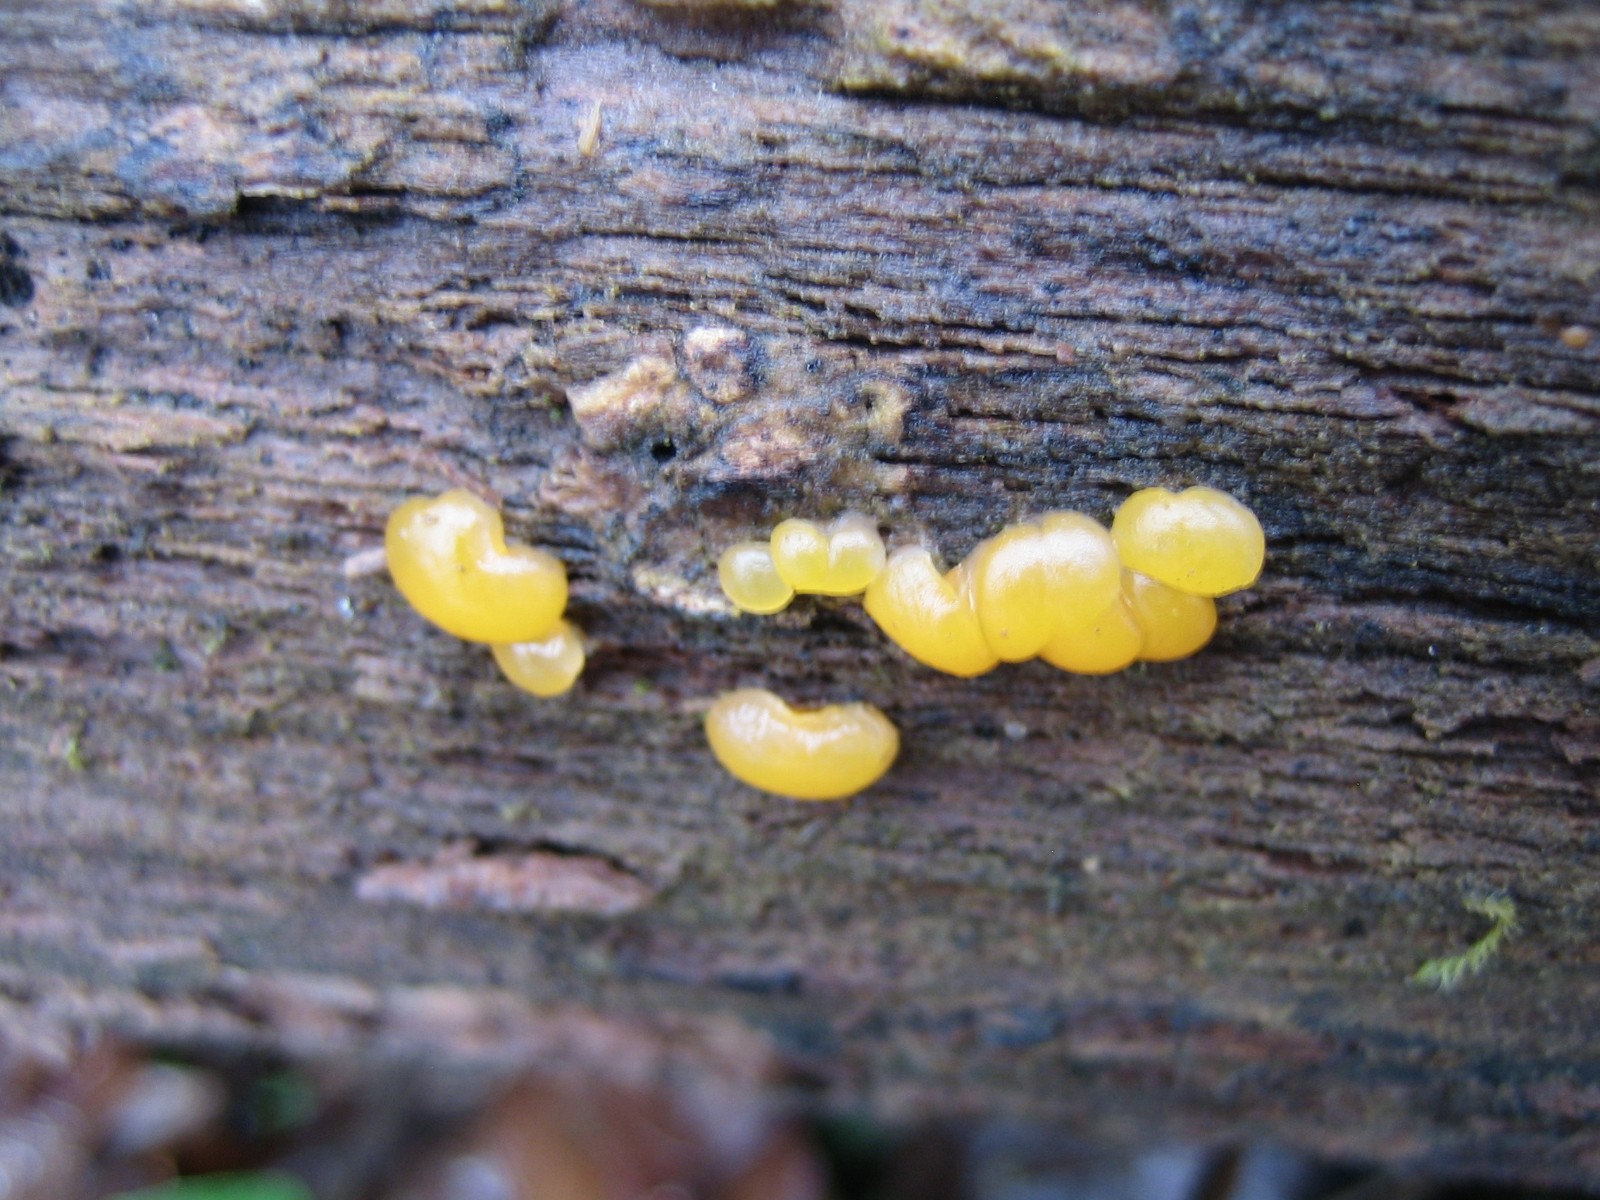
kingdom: Fungi
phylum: Basidiomycota
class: Dacrymycetes
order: Dacrymycetales
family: Dacrymycetaceae
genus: Dacrymyces
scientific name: Dacrymyces stillatus
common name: almindelig tåresvamp
